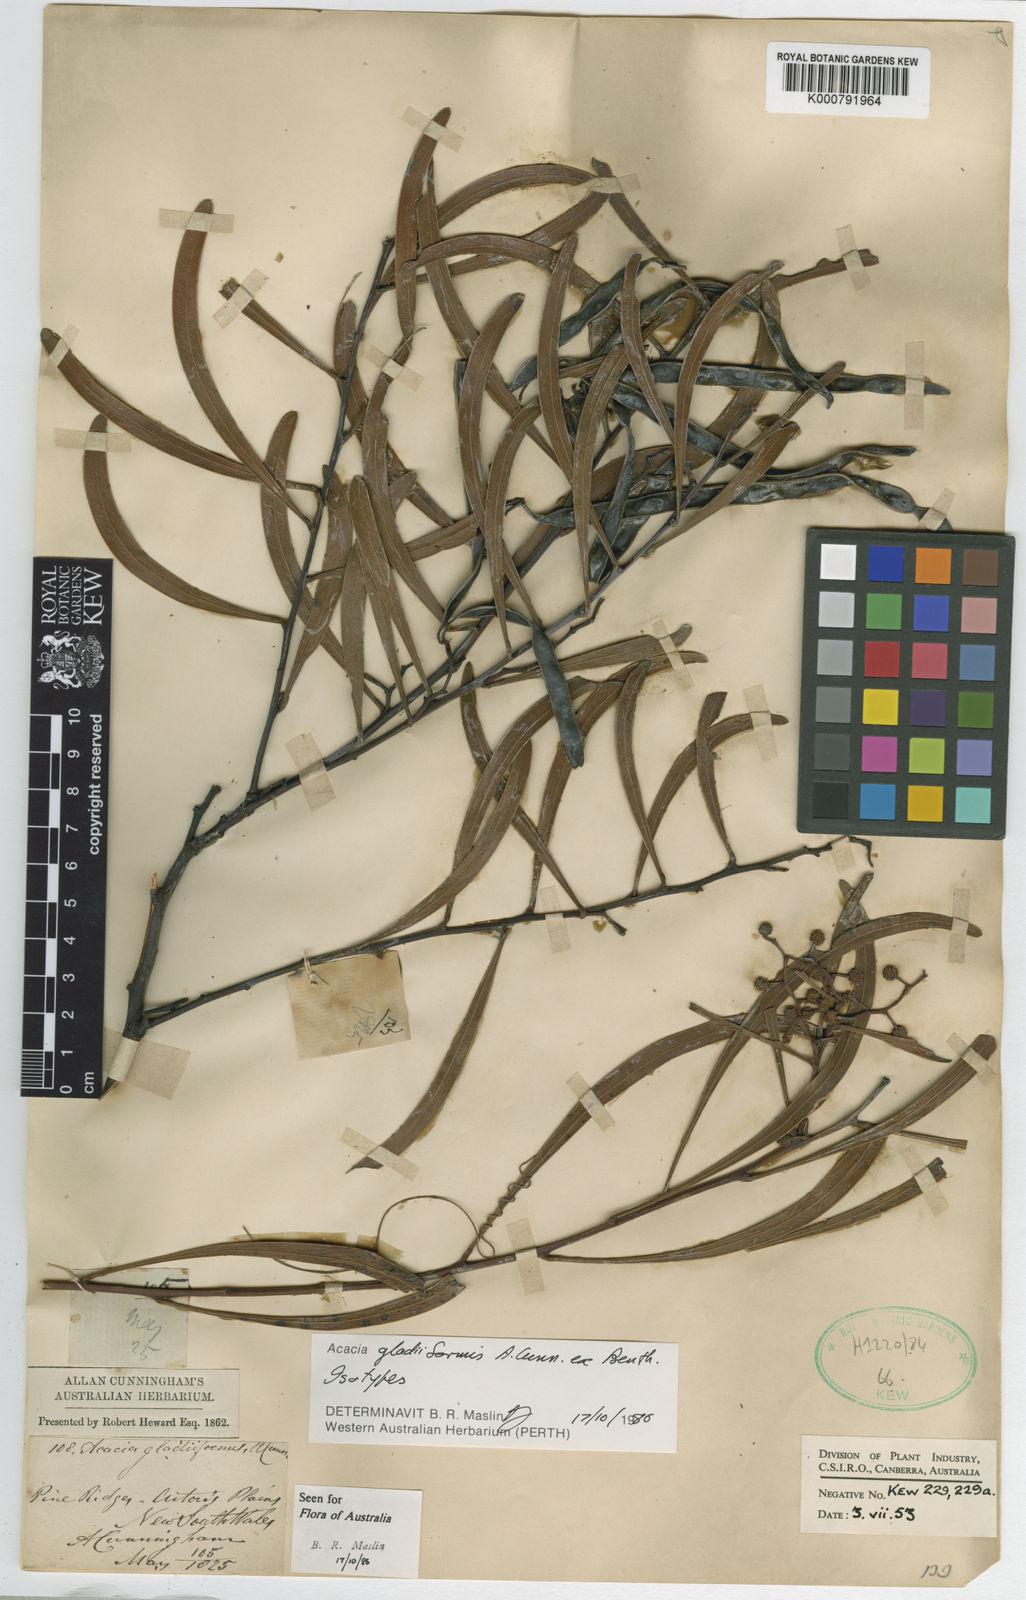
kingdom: Plantae
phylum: Tracheophyta
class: Magnoliopsida
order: Fabales
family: Fabaceae
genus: Acacia
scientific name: Acacia gladiiformis
